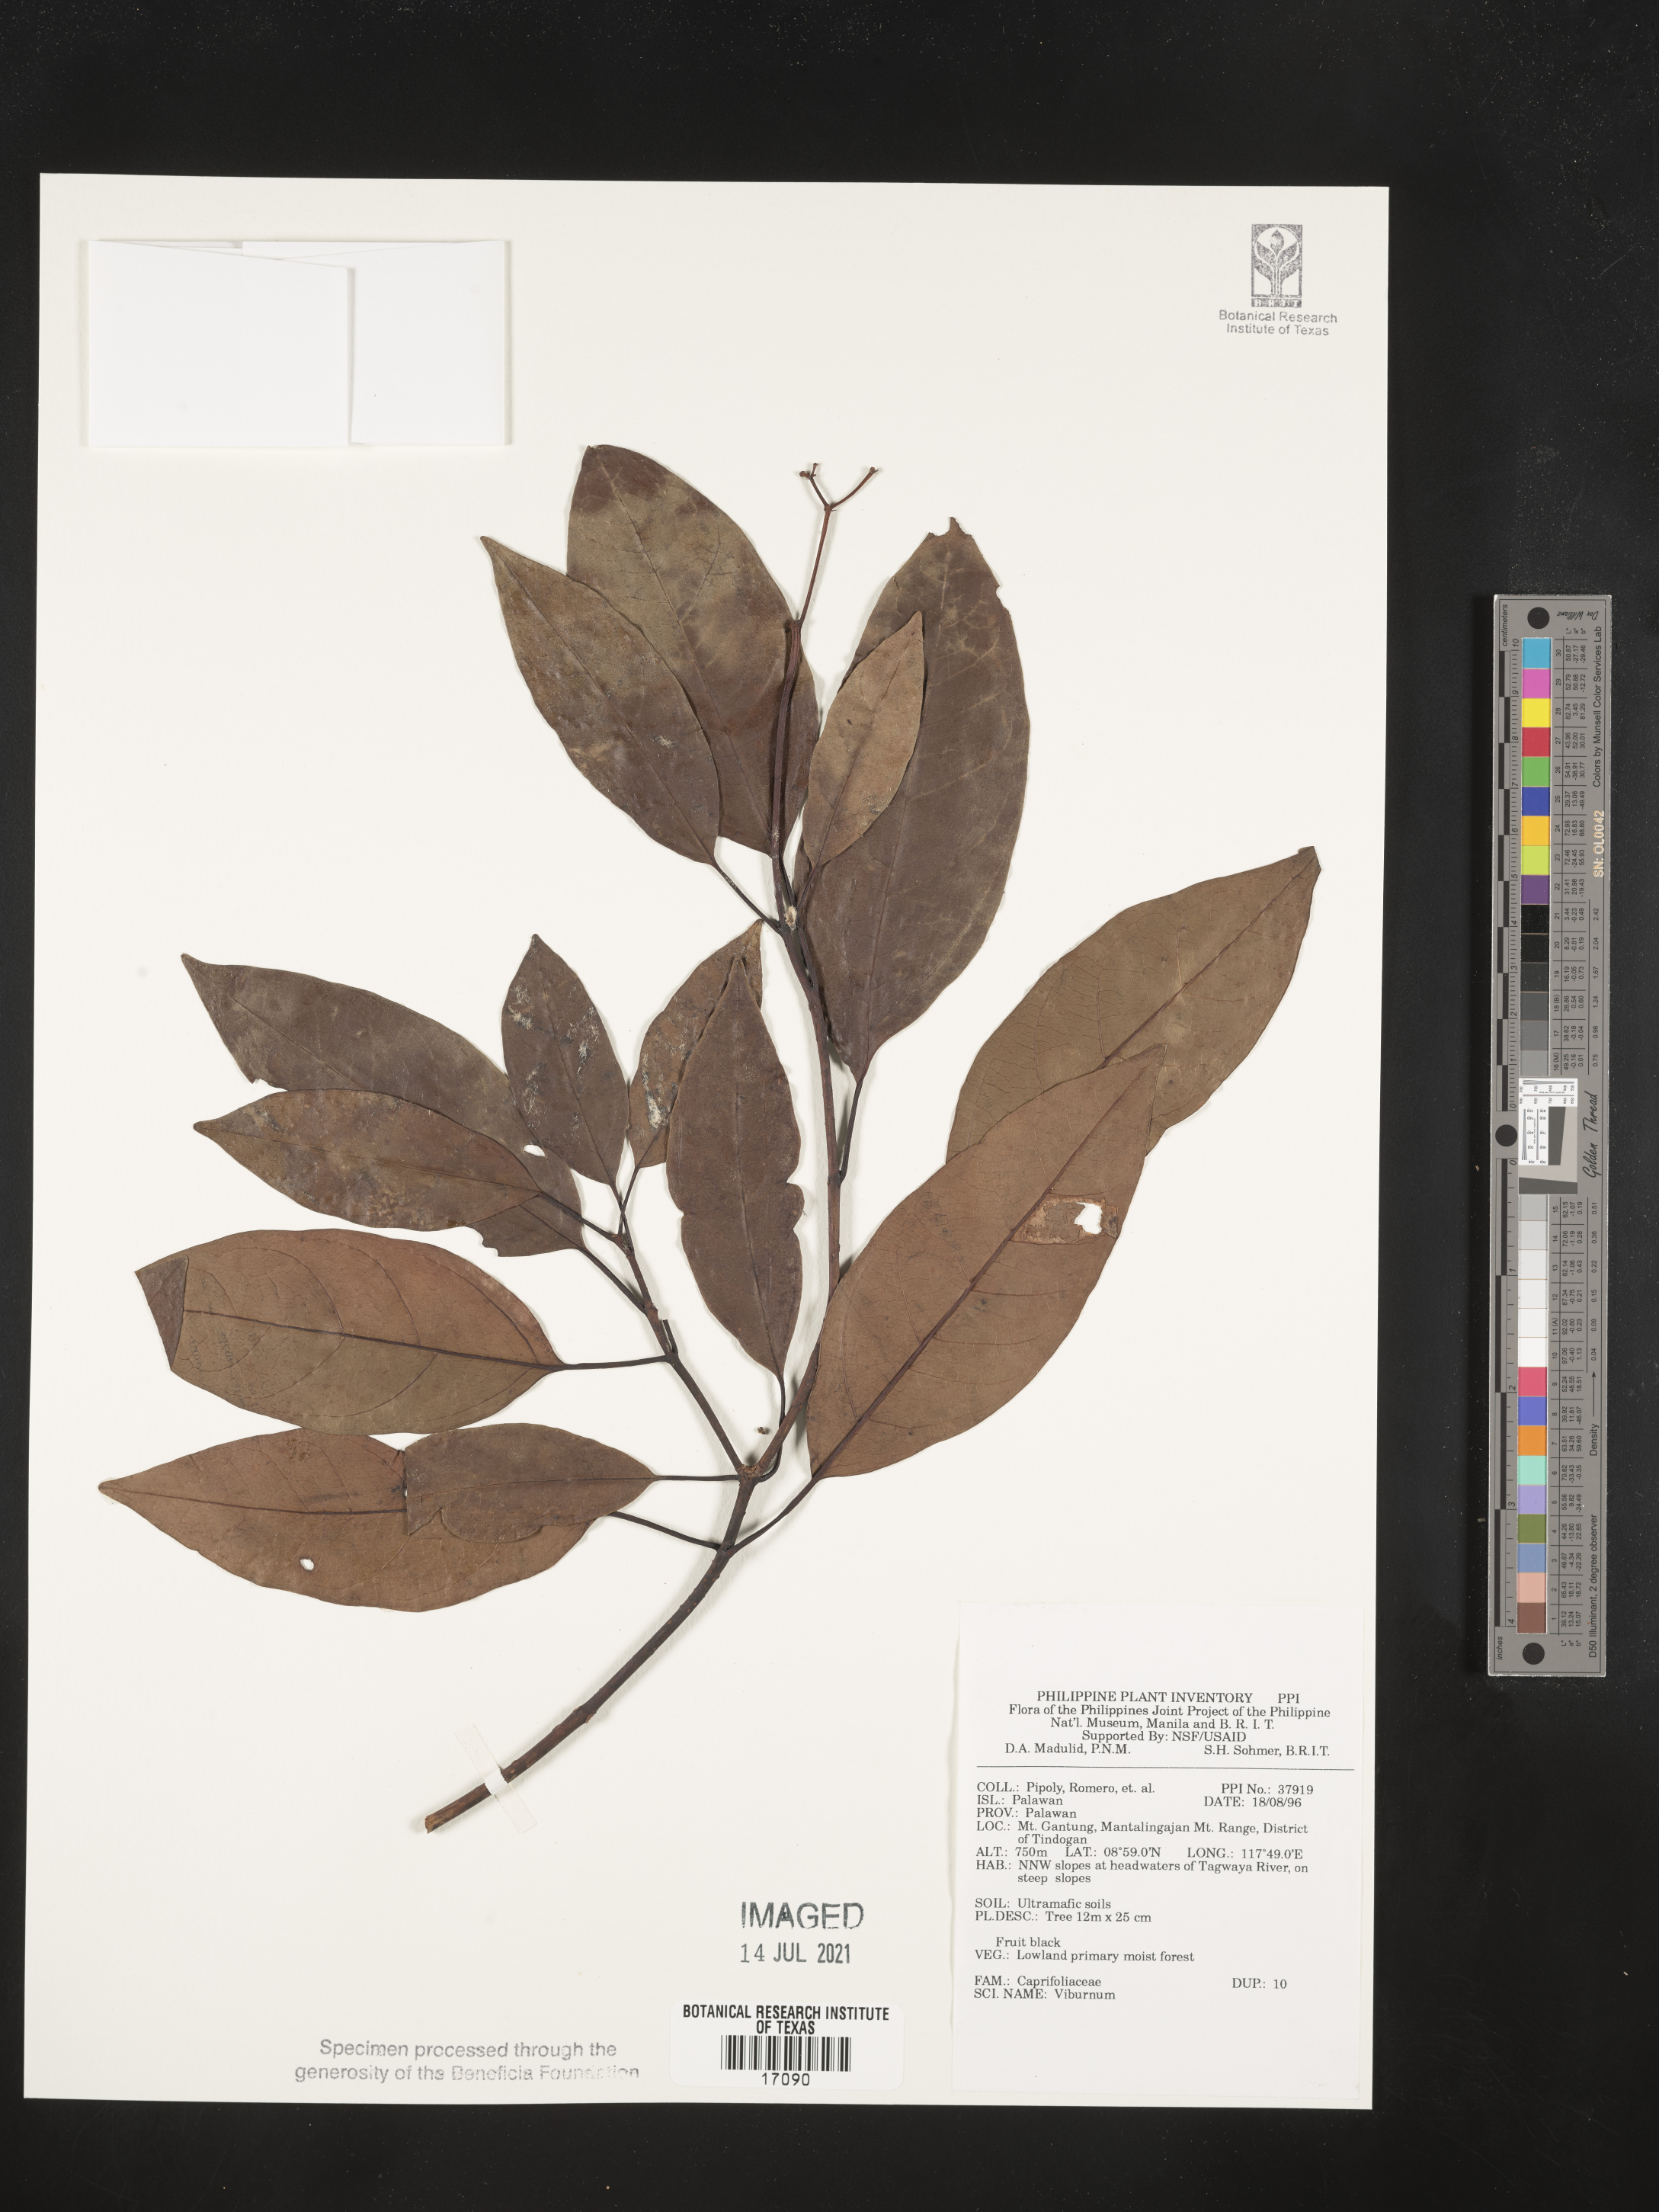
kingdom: Plantae
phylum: Tracheophyta
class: Magnoliopsida
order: Dipsacales
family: Viburnaceae
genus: Viburnum
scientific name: Viburnum
